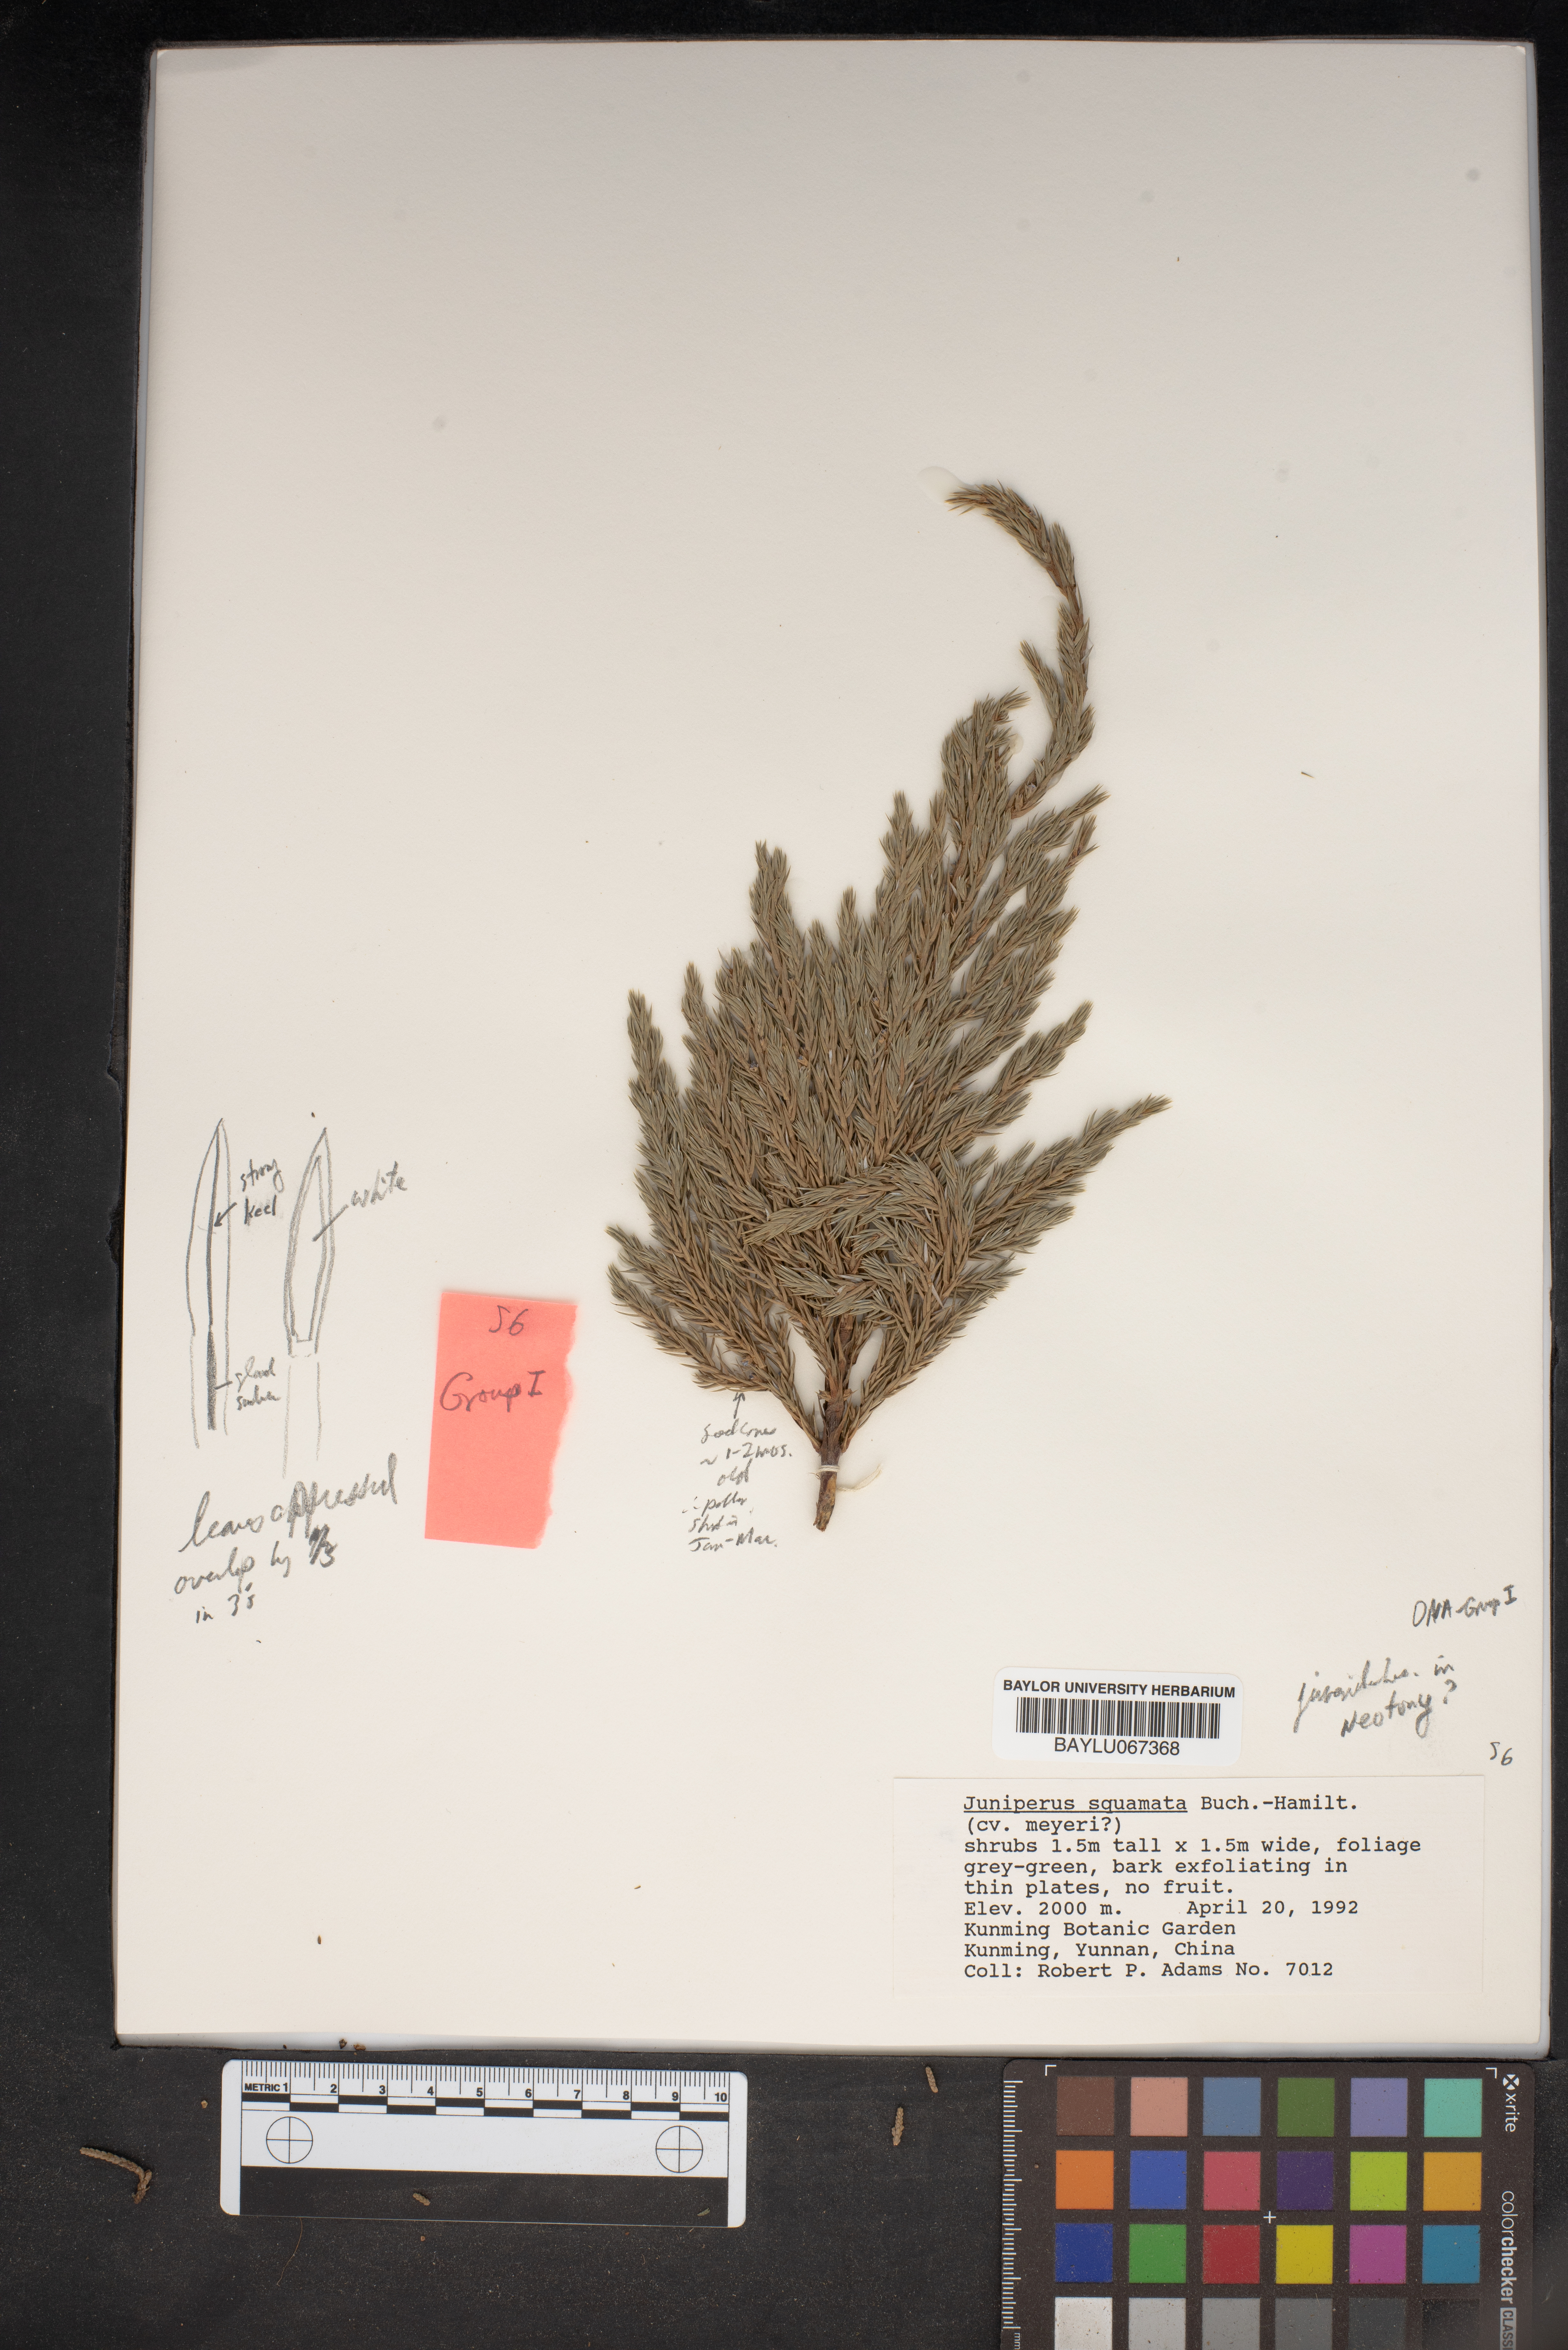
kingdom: Plantae
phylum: Tracheophyta
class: Pinopsida
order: Pinales
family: Cupressaceae
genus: Juniperus
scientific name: Juniperus squamata
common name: Flaky juniper
